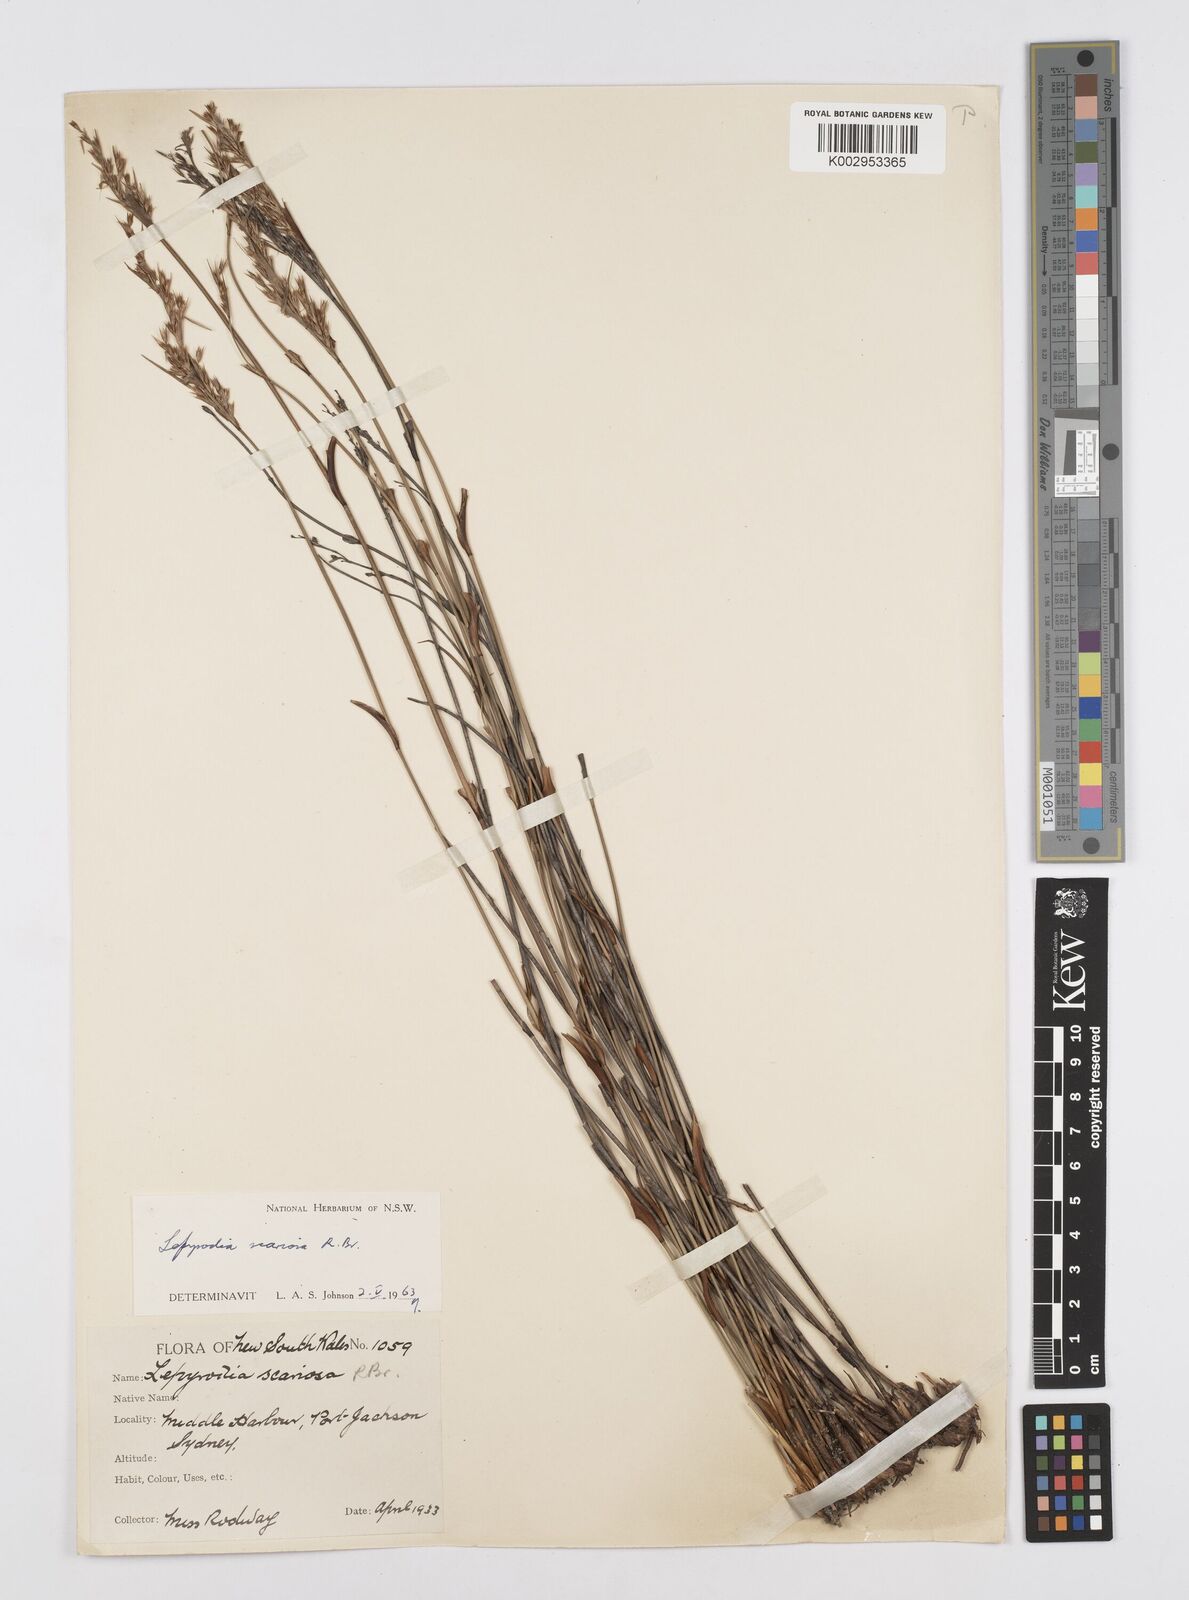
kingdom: Plantae
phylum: Tracheophyta
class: Liliopsida
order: Poales
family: Restionaceae
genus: Lepyrodia
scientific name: Lepyrodia scariosa
